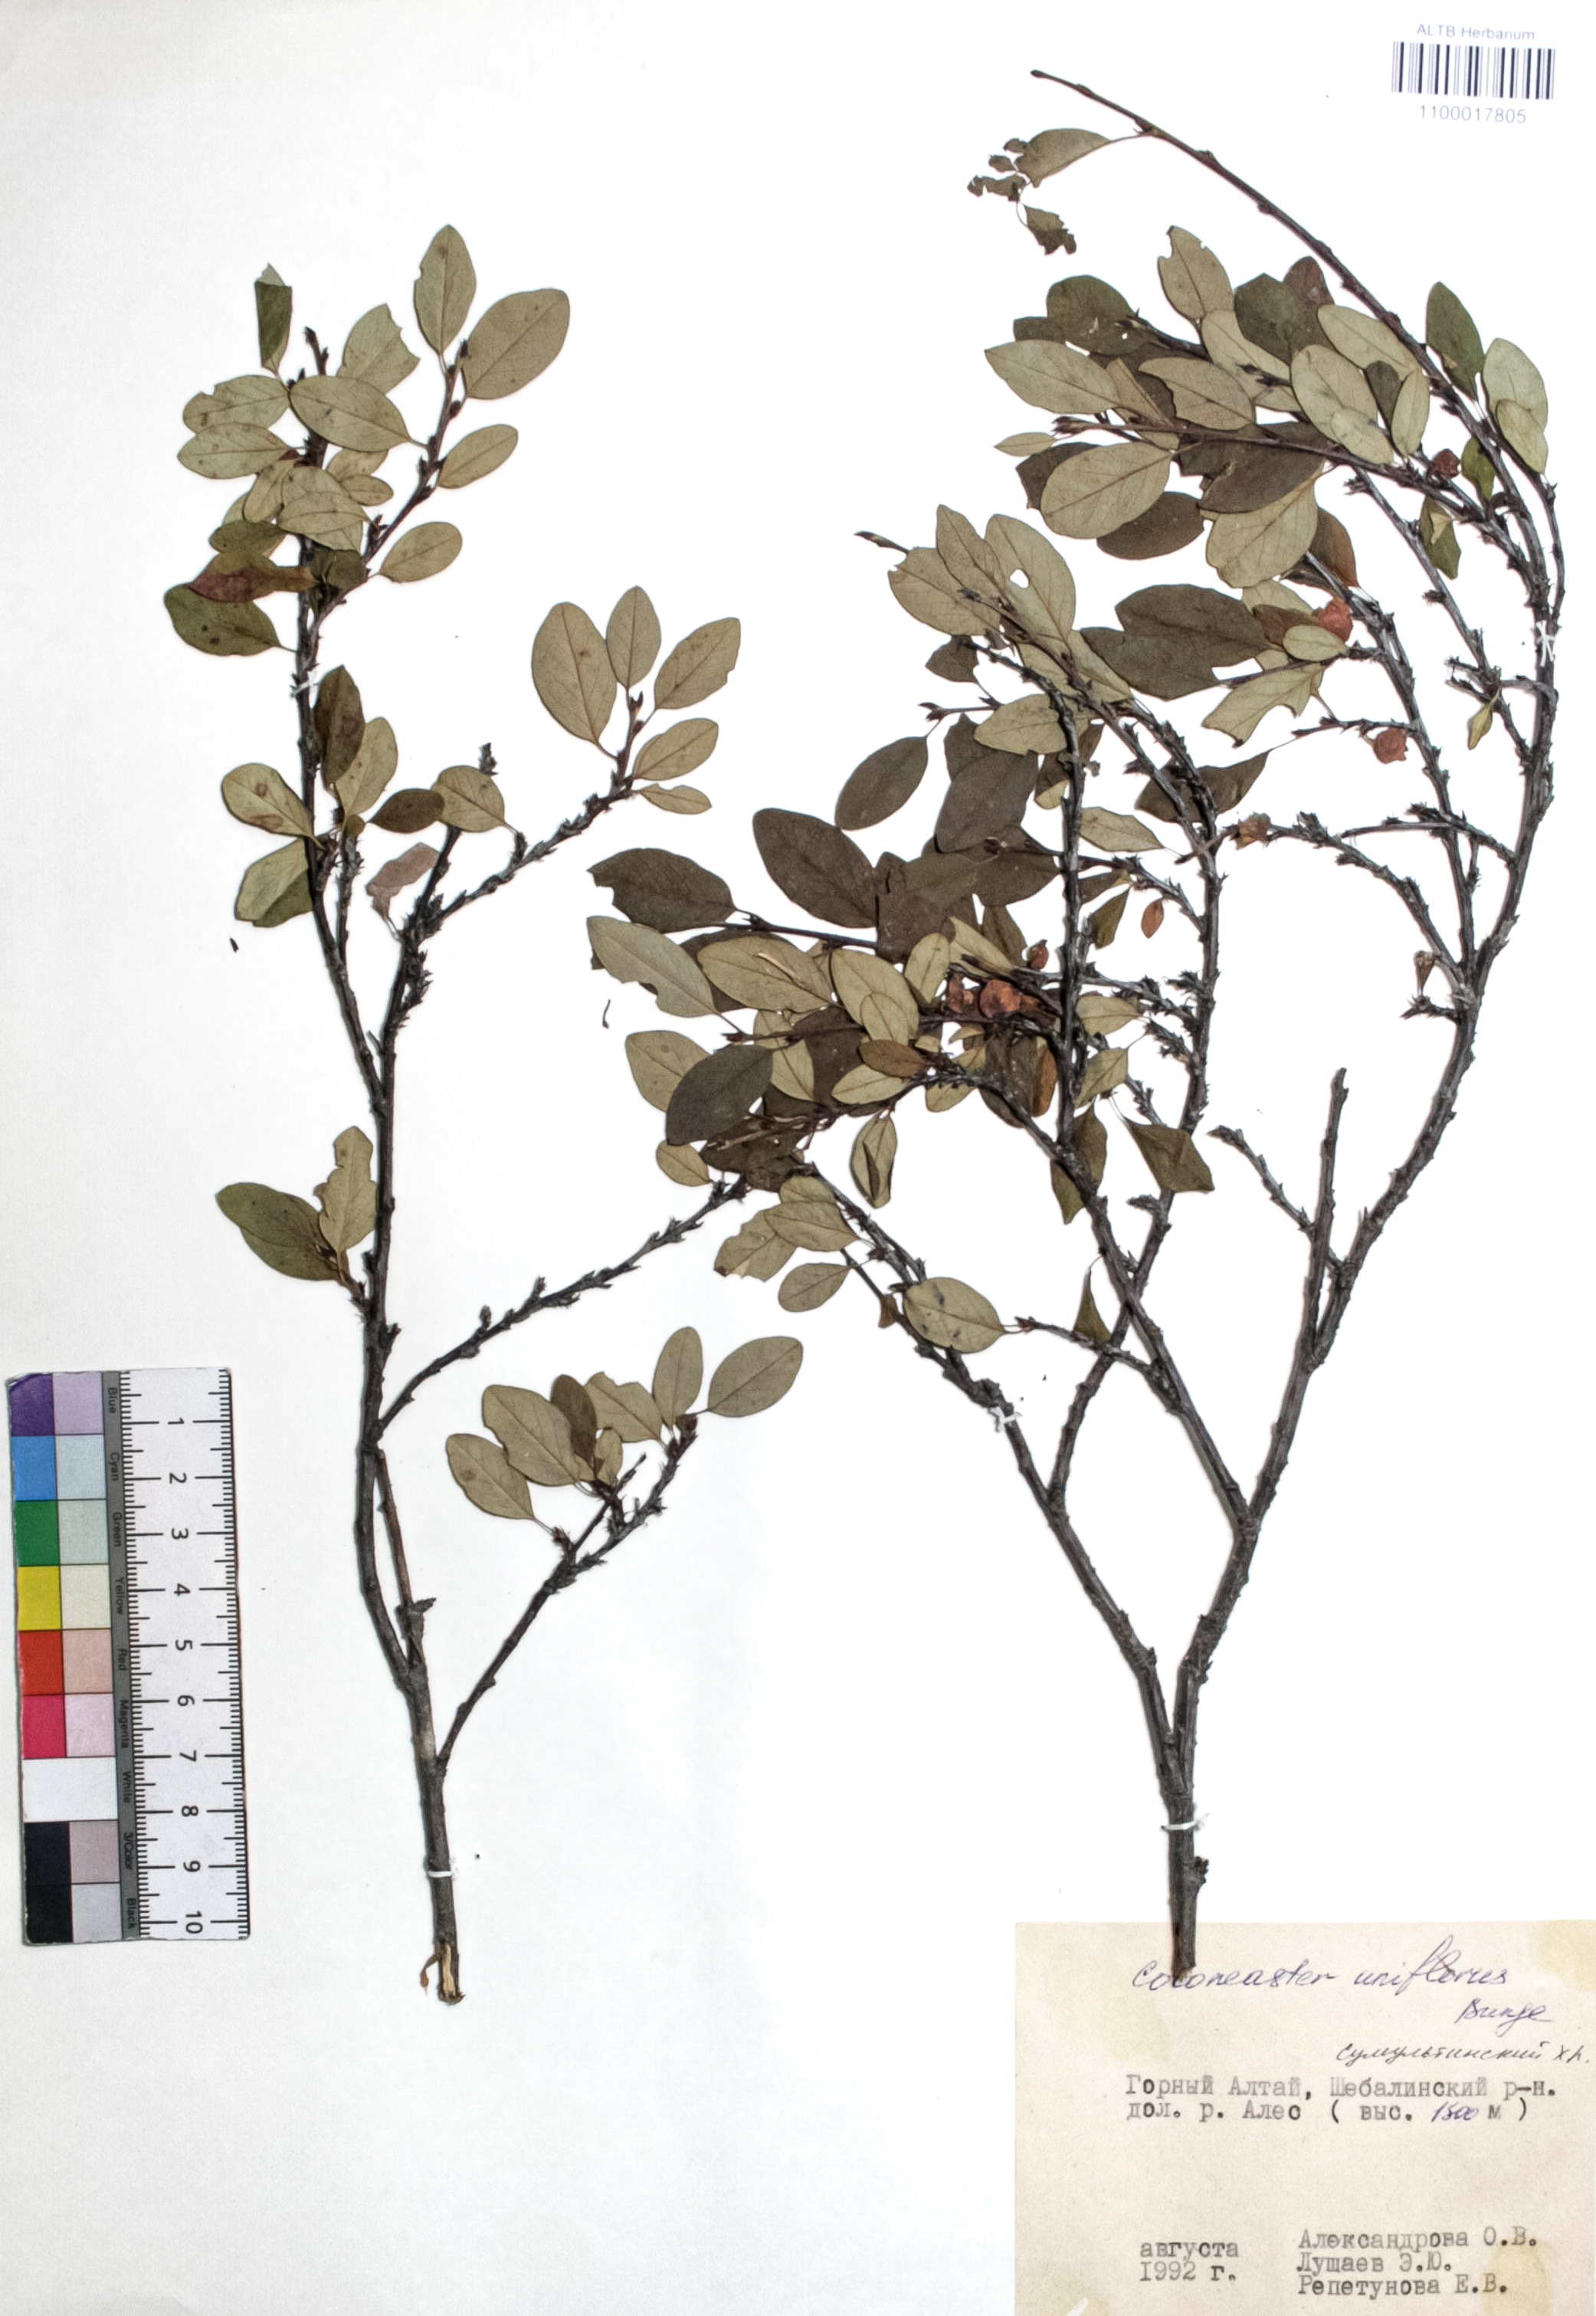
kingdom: Plantae
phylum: Tracheophyta
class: Magnoliopsida
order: Rosales
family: Rosaceae
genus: Cotoneaster
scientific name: Cotoneaster uniflorus
